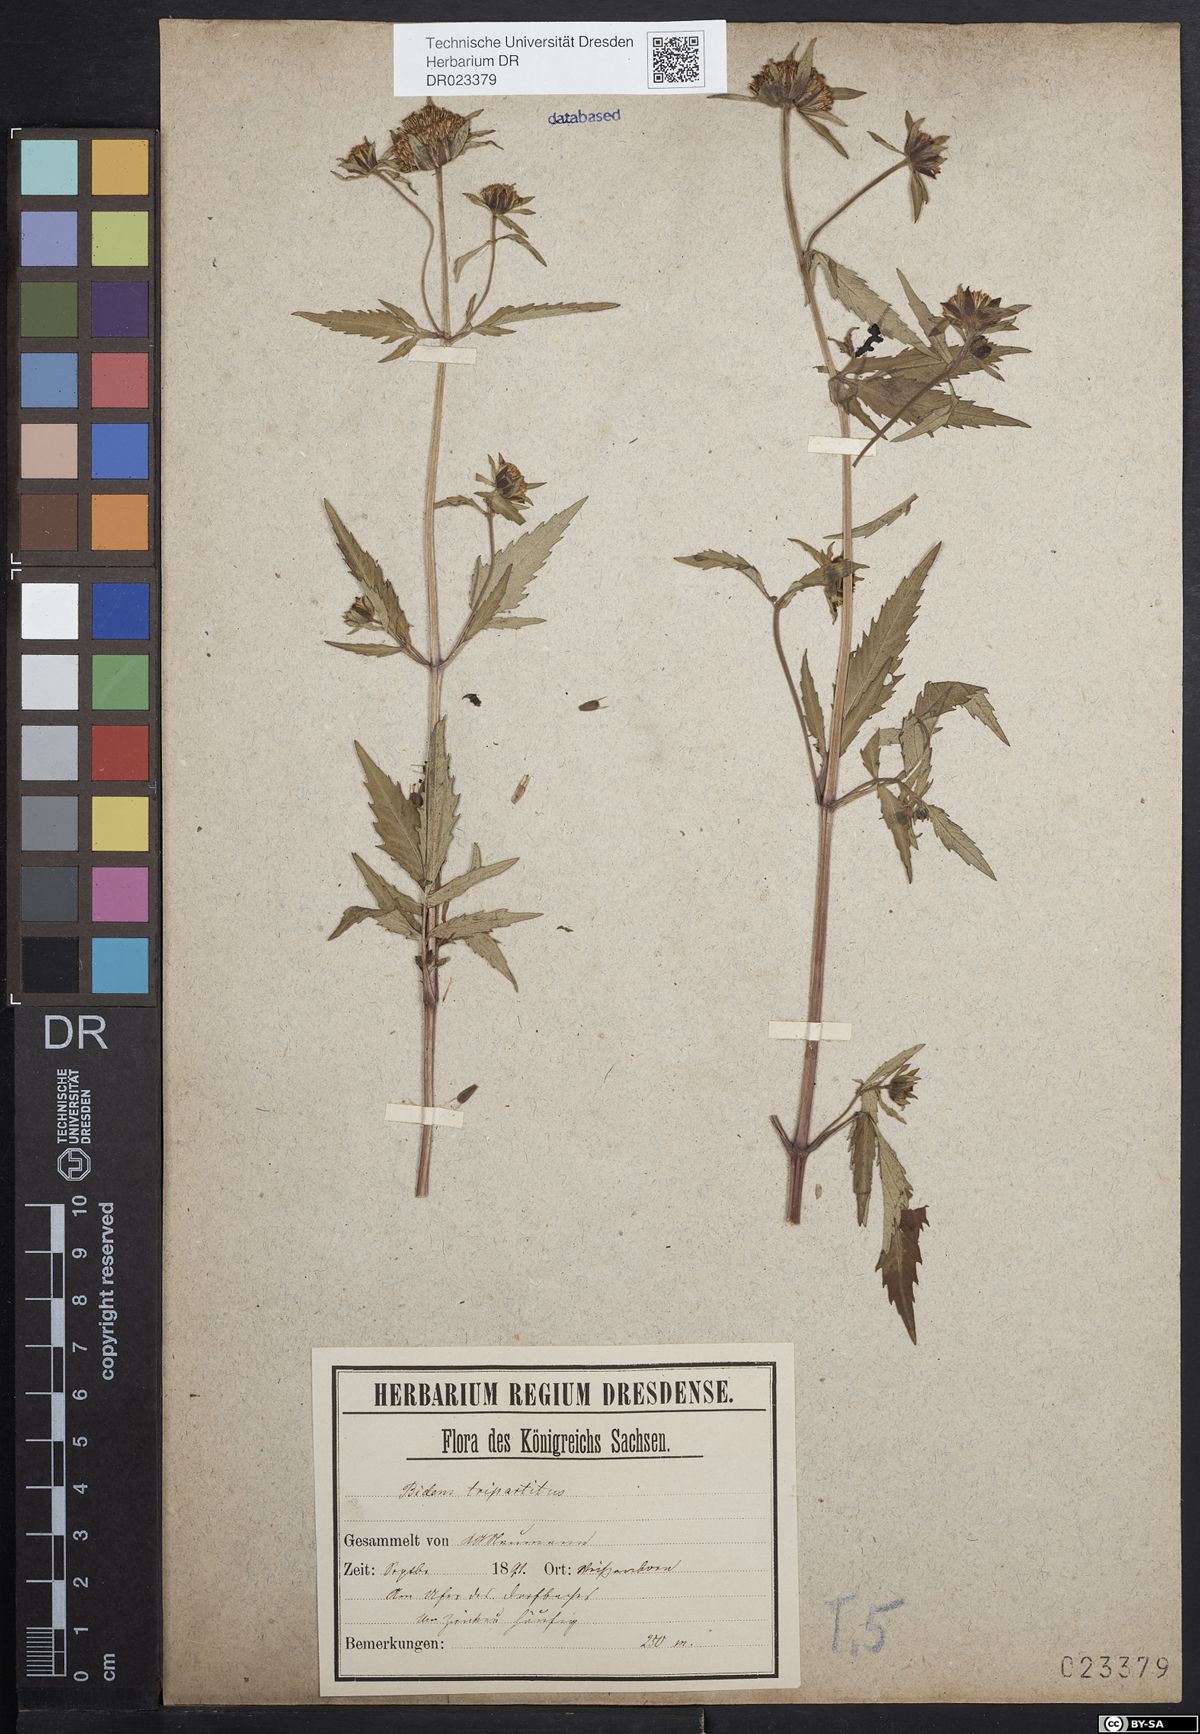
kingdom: Plantae
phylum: Tracheophyta
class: Magnoliopsida
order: Asterales
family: Asteraceae
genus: Bidens
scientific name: Bidens tripartita
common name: Trifid bur-marigold
